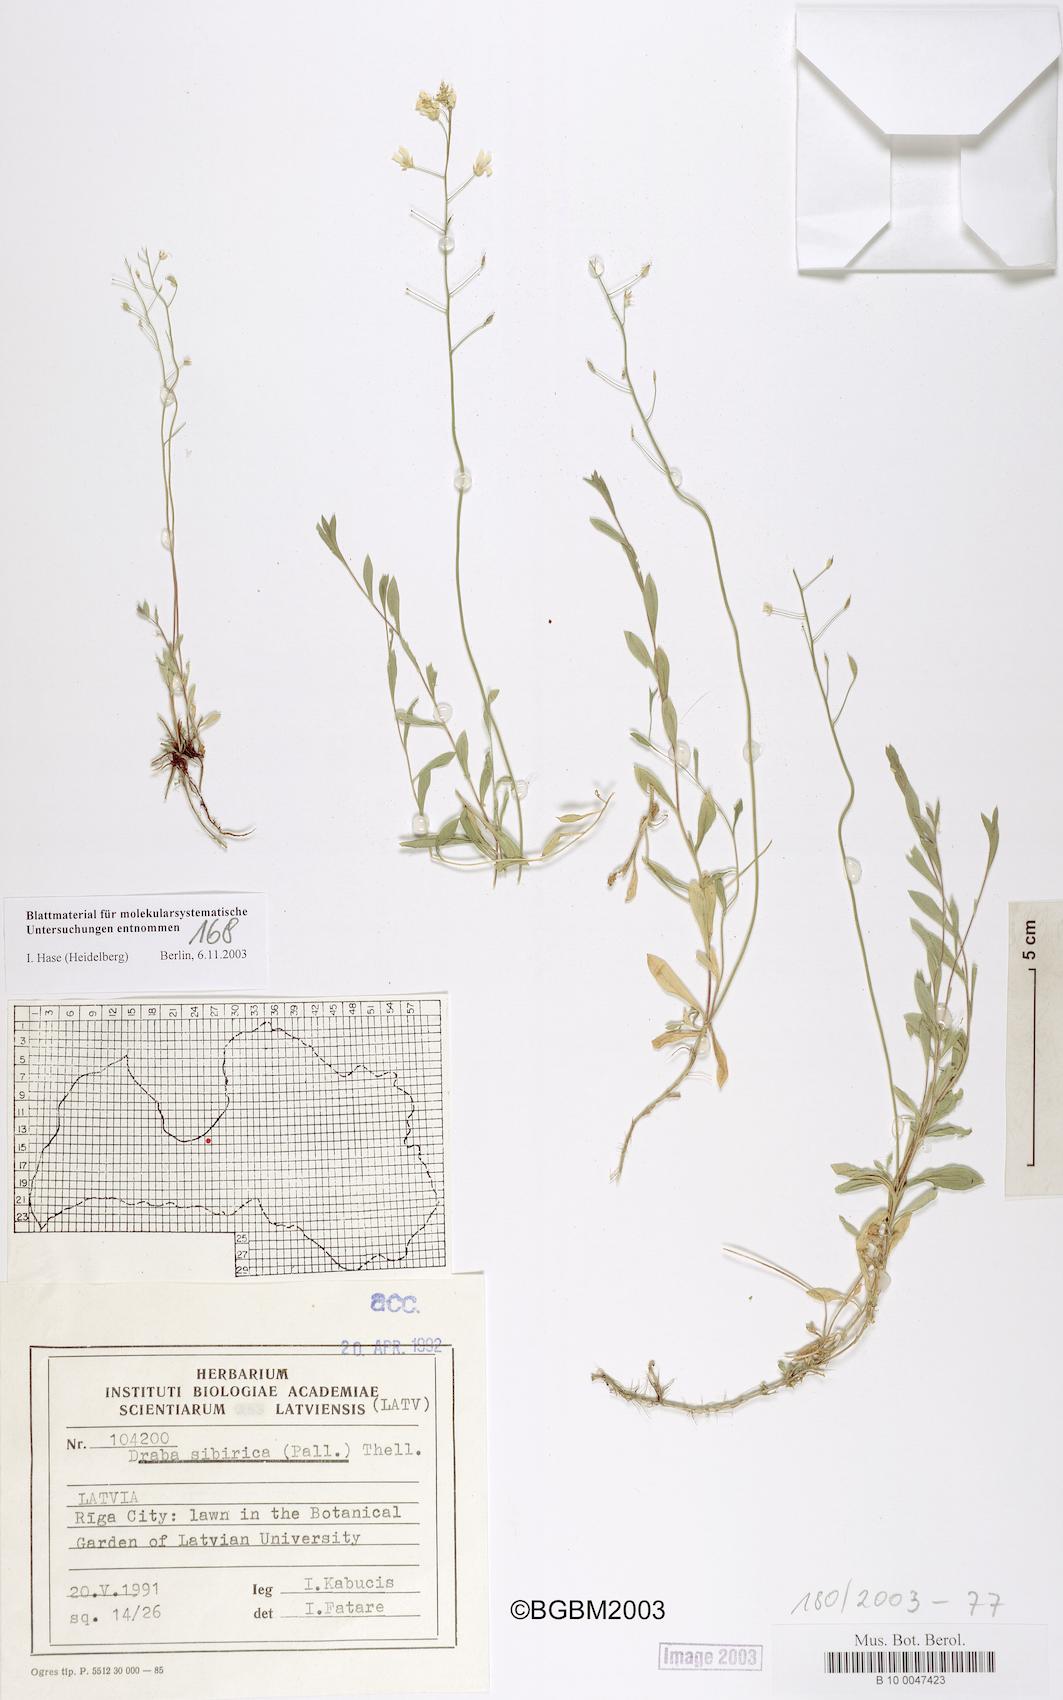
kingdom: Plantae
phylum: Tracheophyta
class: Magnoliopsida
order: Brassicales
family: Brassicaceae
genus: Draba
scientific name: Draba sibirica
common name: Siberian draba
